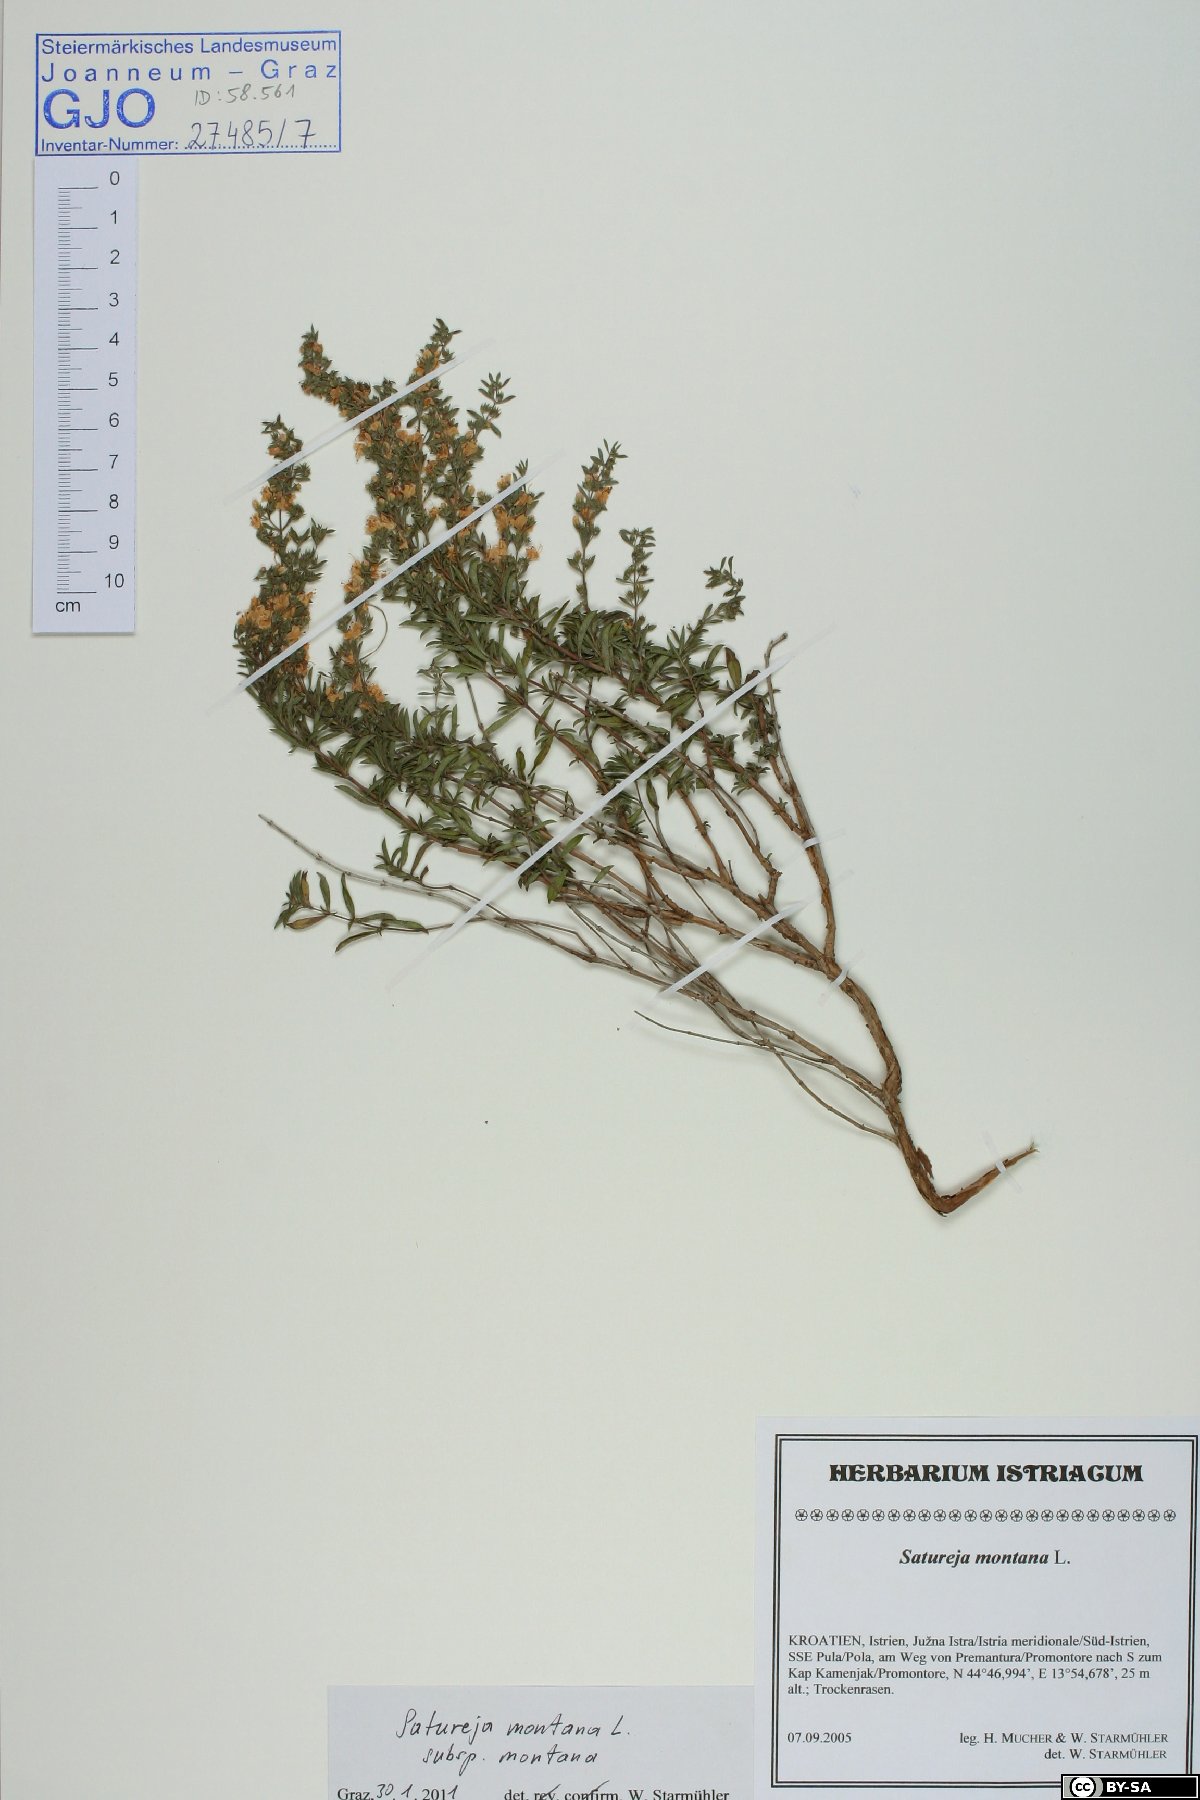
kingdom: Plantae
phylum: Tracheophyta
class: Magnoliopsida
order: Lamiales
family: Lamiaceae
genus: Satureja
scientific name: Satureja montana
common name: Winter savory
